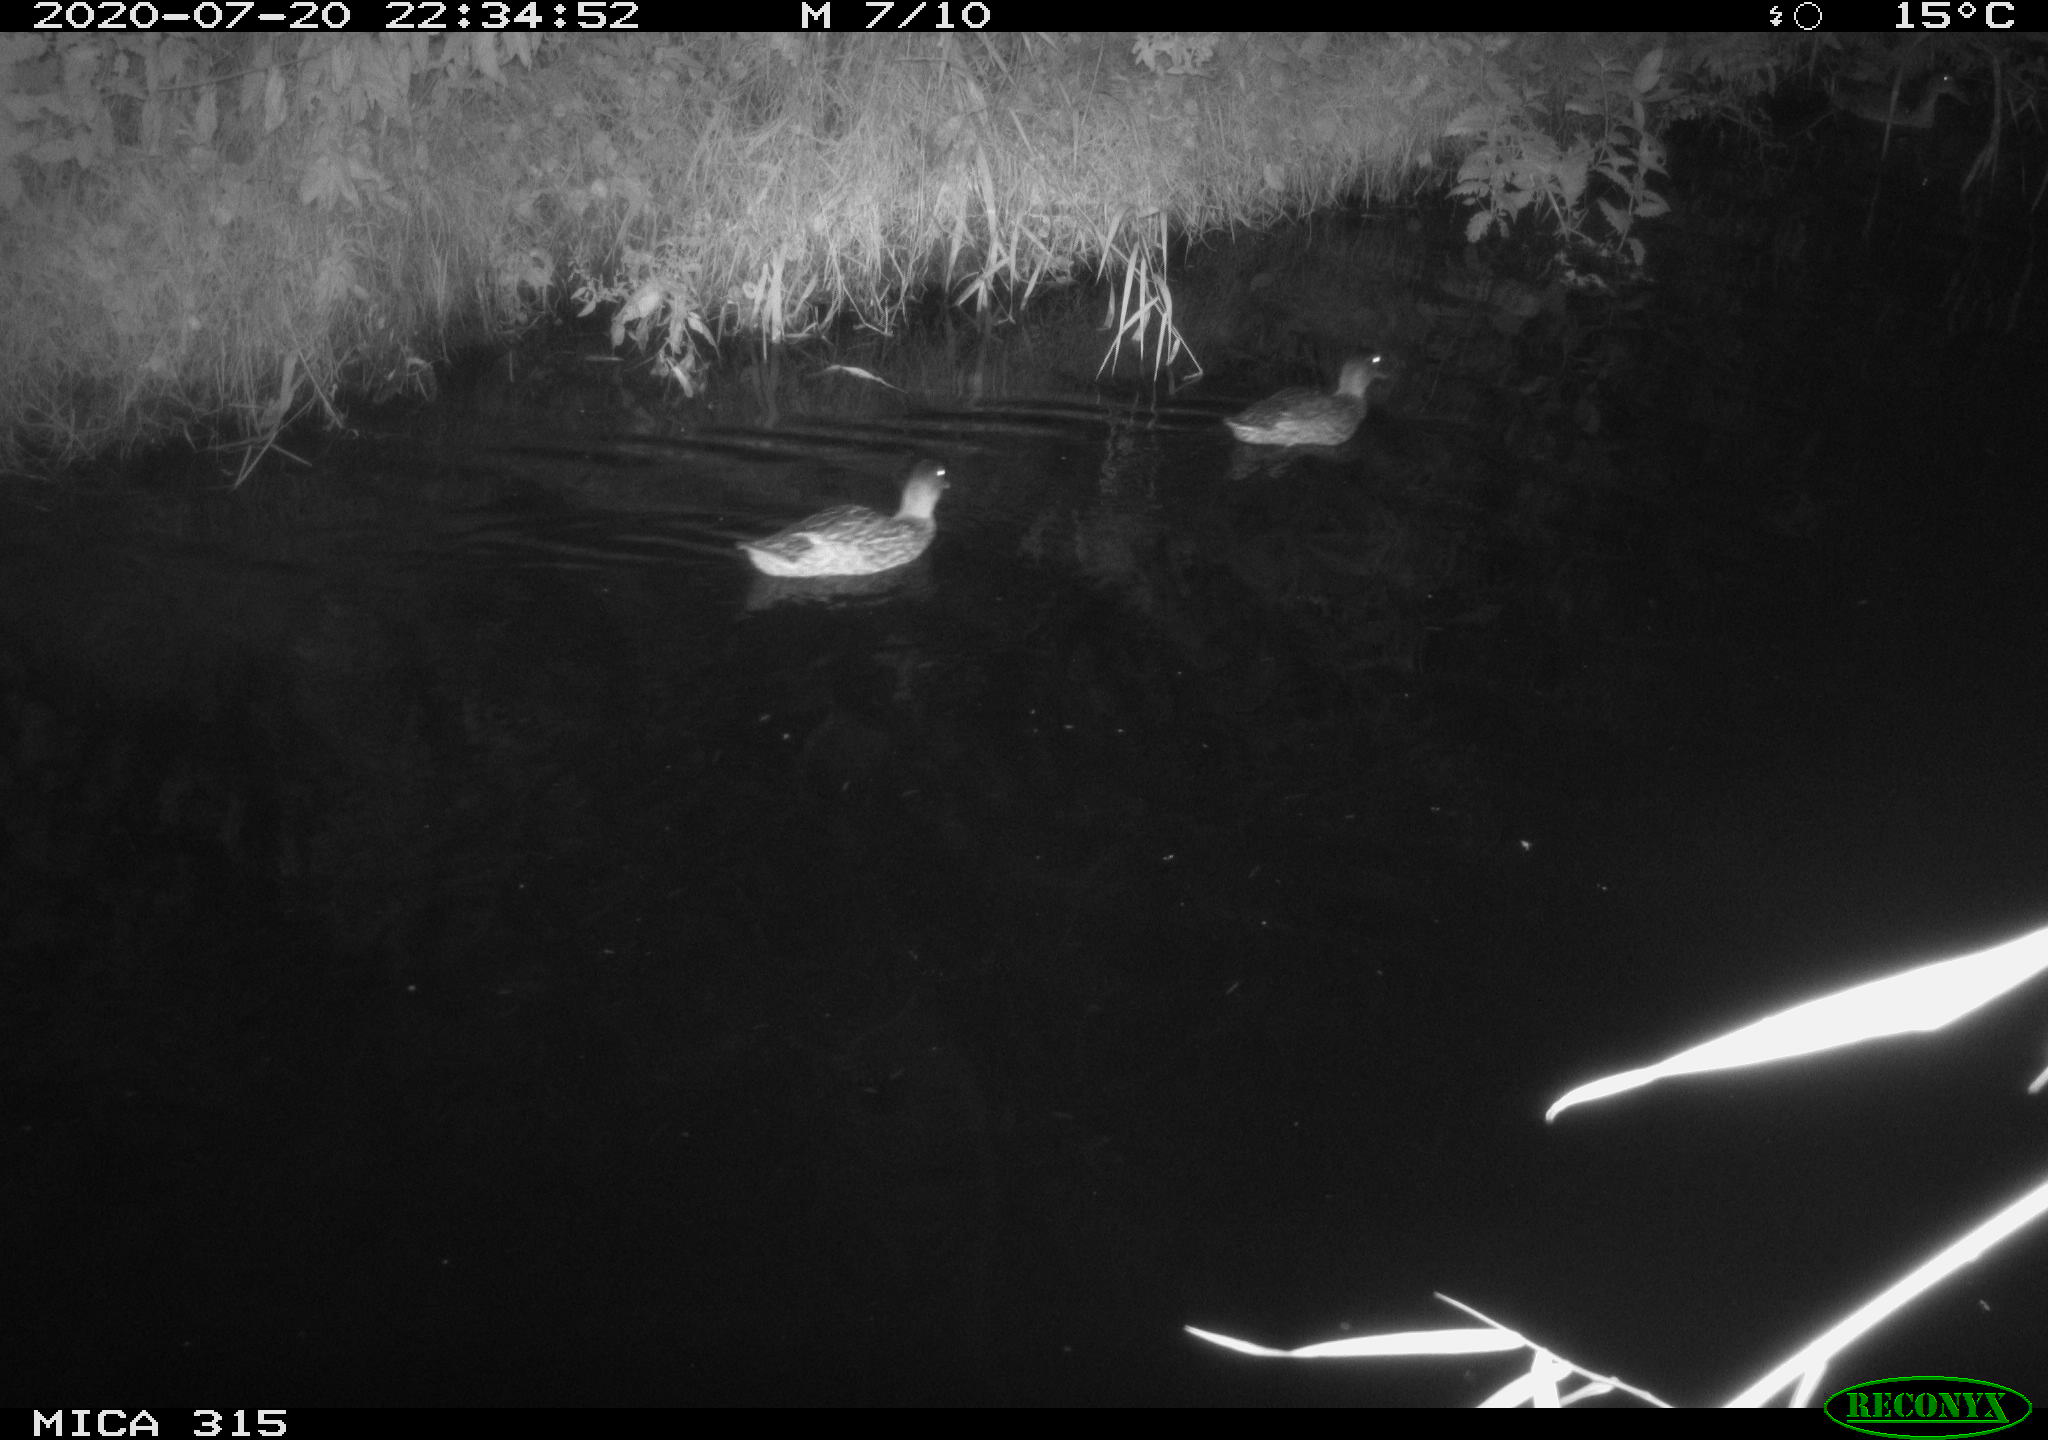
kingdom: Animalia
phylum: Chordata
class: Aves
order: Anseriformes
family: Anatidae
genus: Anas
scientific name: Anas platyrhynchos
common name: Mallard
